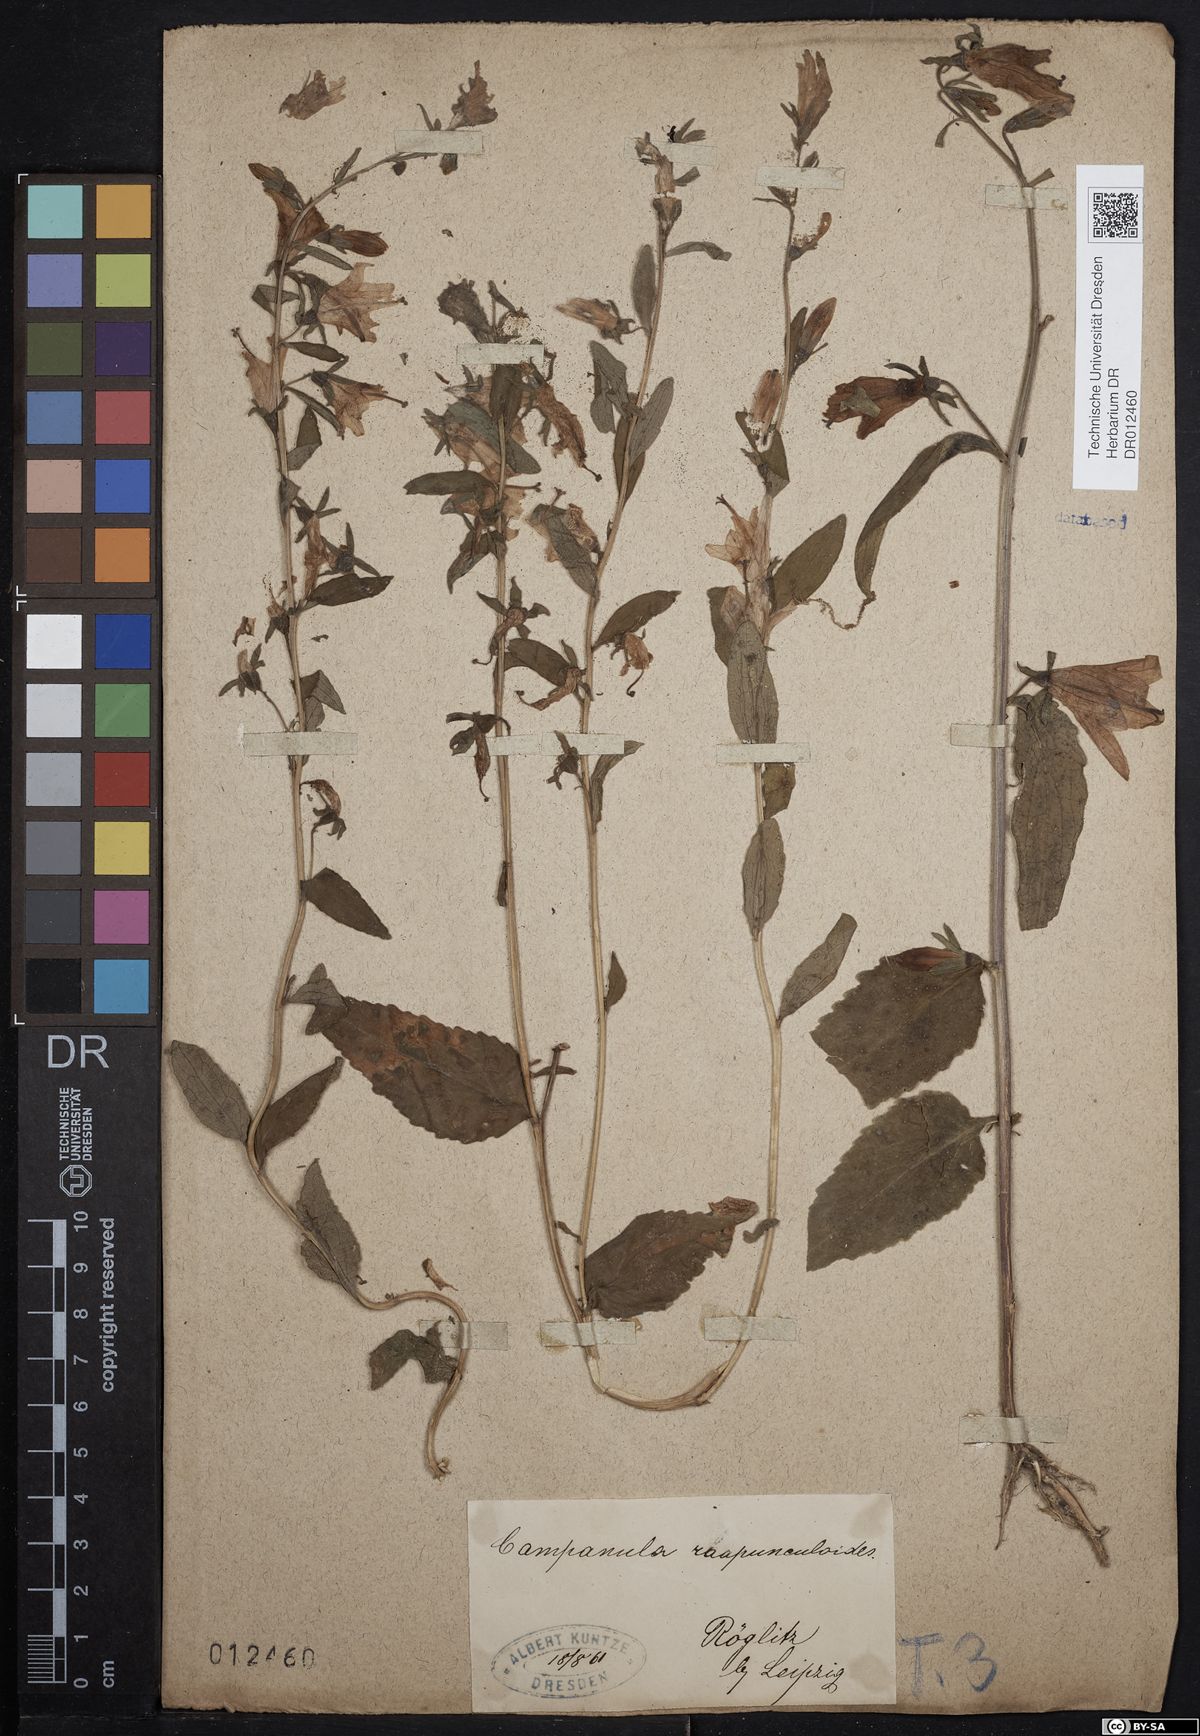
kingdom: Plantae
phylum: Tracheophyta
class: Magnoliopsida
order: Asterales
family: Campanulaceae
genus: Campanula
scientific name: Campanula rapunculoides
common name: Creeping bellflower
